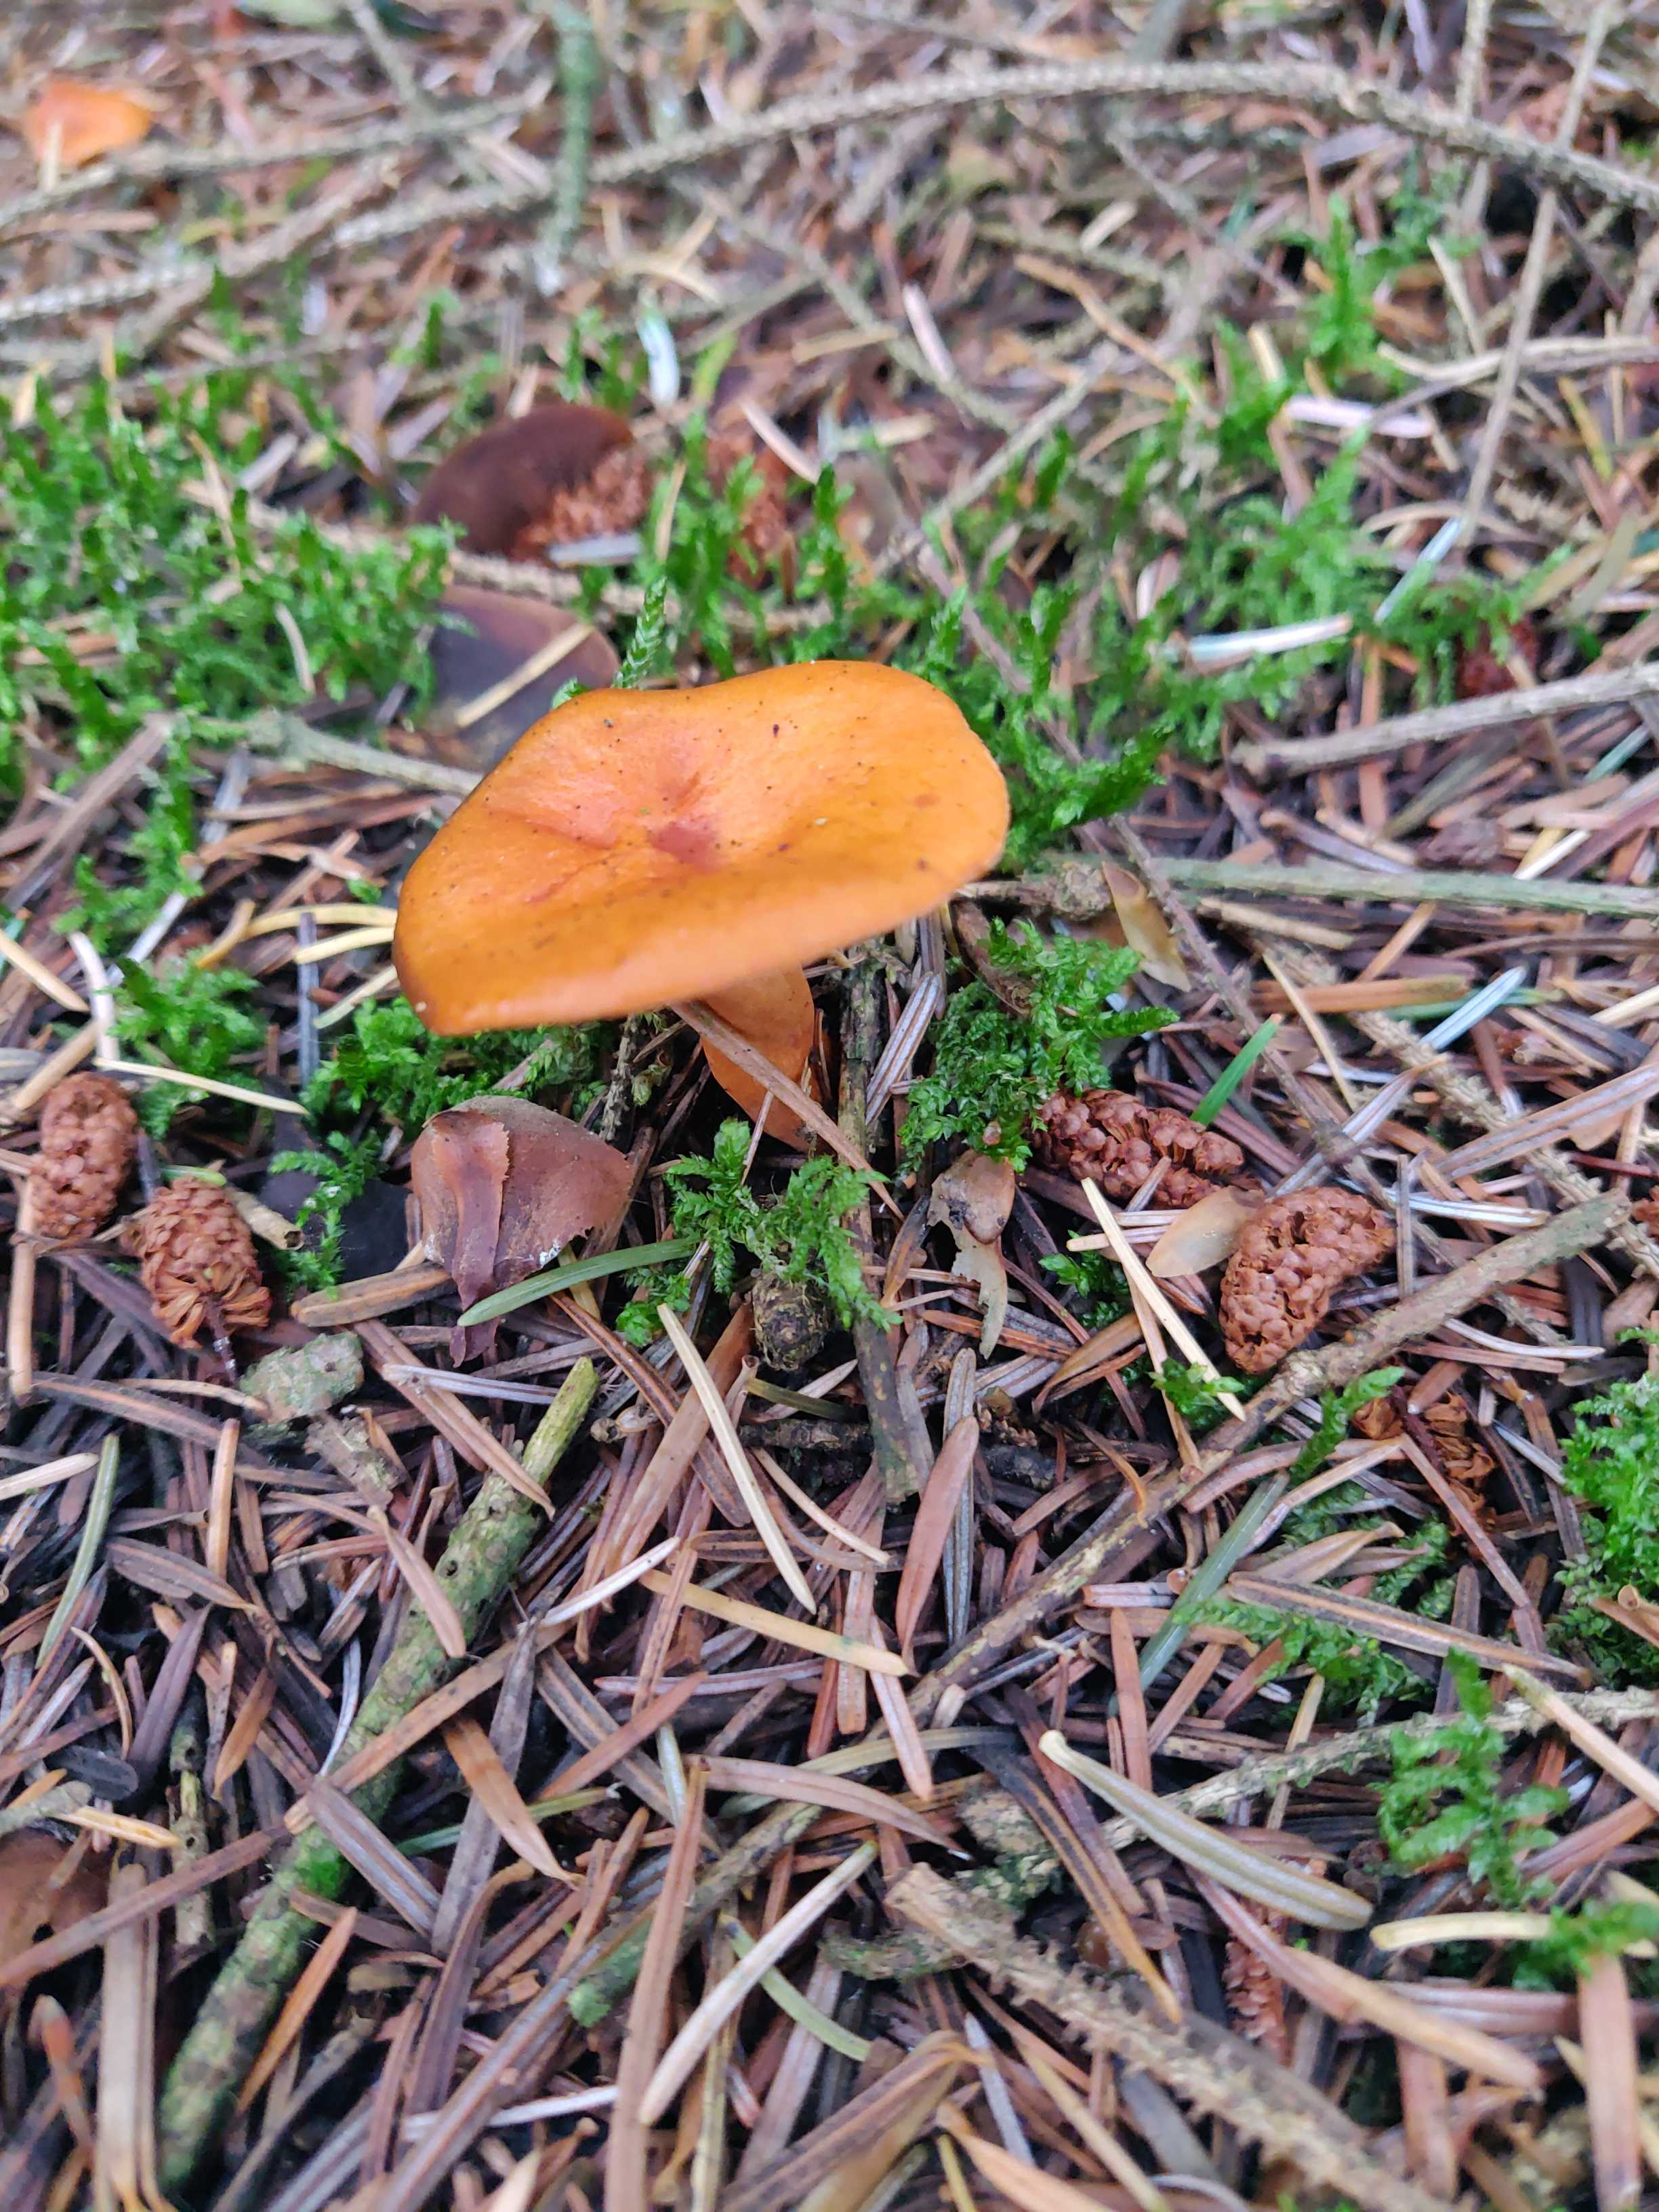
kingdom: Fungi
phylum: Basidiomycota
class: Agaricomycetes
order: Russulales
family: Russulaceae
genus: Lactarius
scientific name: Lactarius aurantiacus
